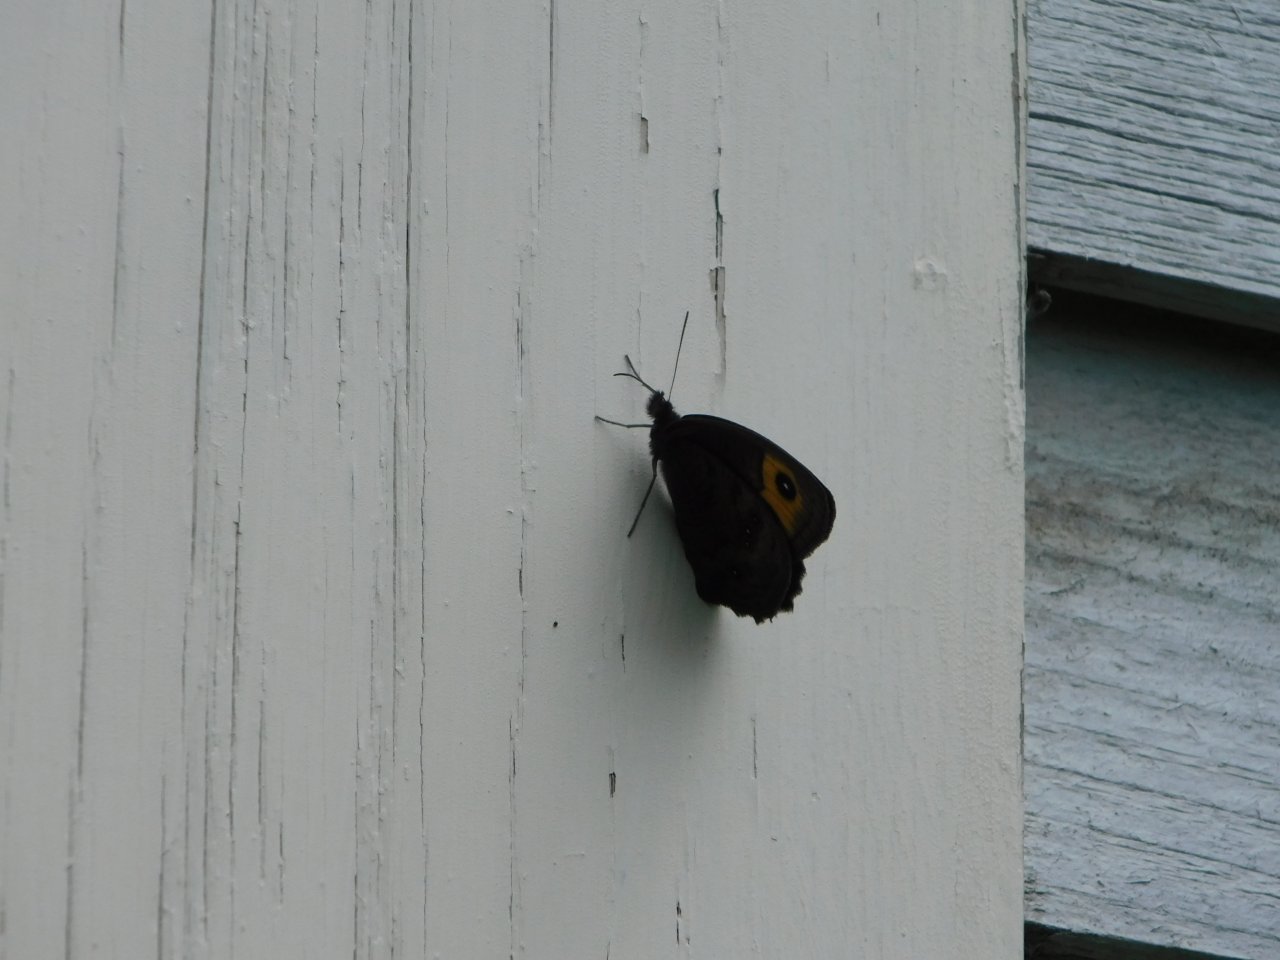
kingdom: Animalia
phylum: Arthropoda
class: Insecta
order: Lepidoptera
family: Nymphalidae
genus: Cercyonis
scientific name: Cercyonis pegala
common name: Common Wood-Nymph
